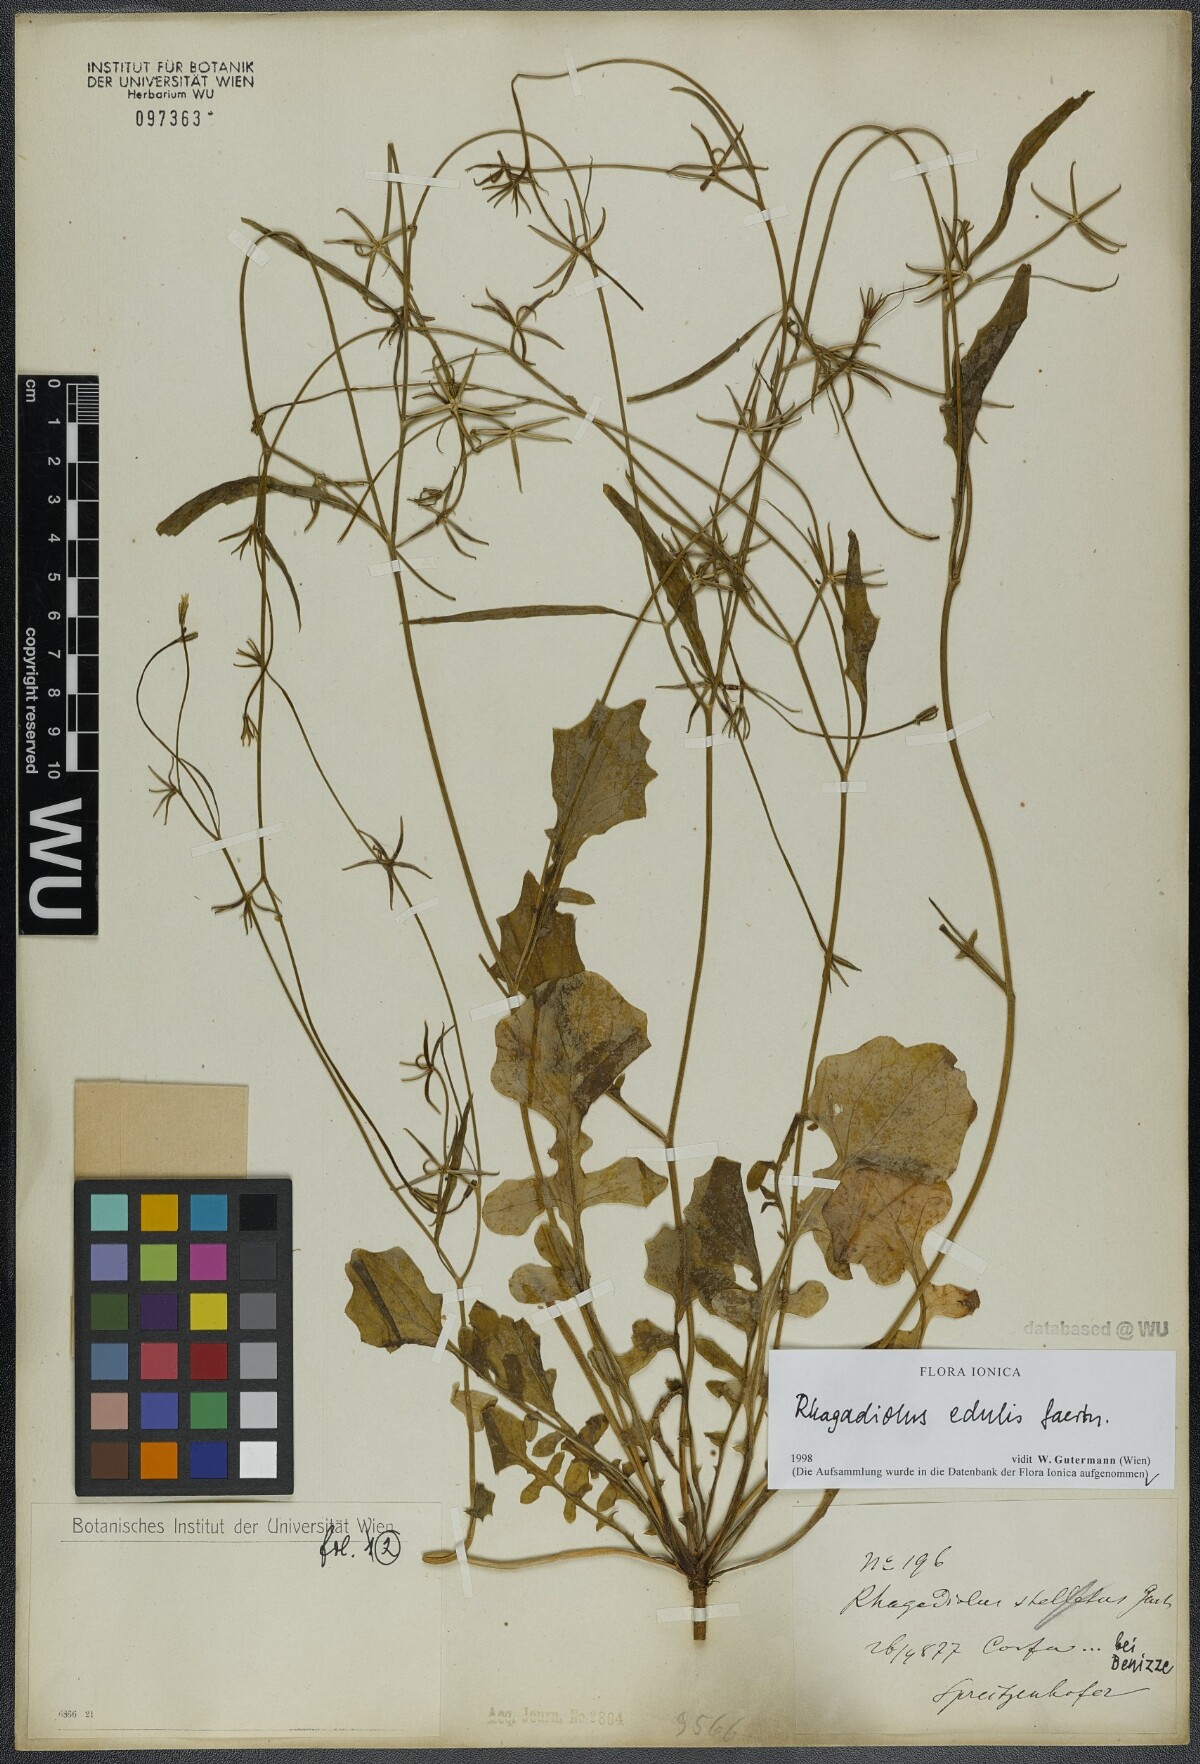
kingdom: Plantae
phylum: Tracheophyta
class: Magnoliopsida
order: Asterales
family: Asteraceae
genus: Rhagadiolus
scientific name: Rhagadiolus edulis
